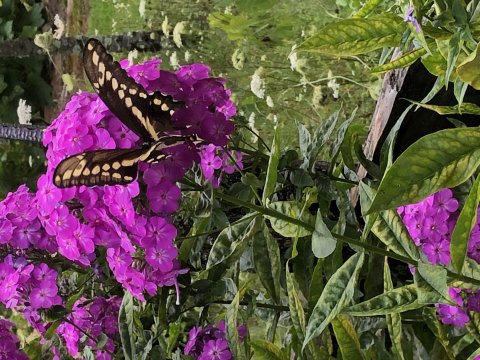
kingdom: Animalia
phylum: Arthropoda
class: Insecta
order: Lepidoptera
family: Papilionidae
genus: Papilio
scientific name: Papilio cresphontes
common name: Eastern Giant Swallowtail
